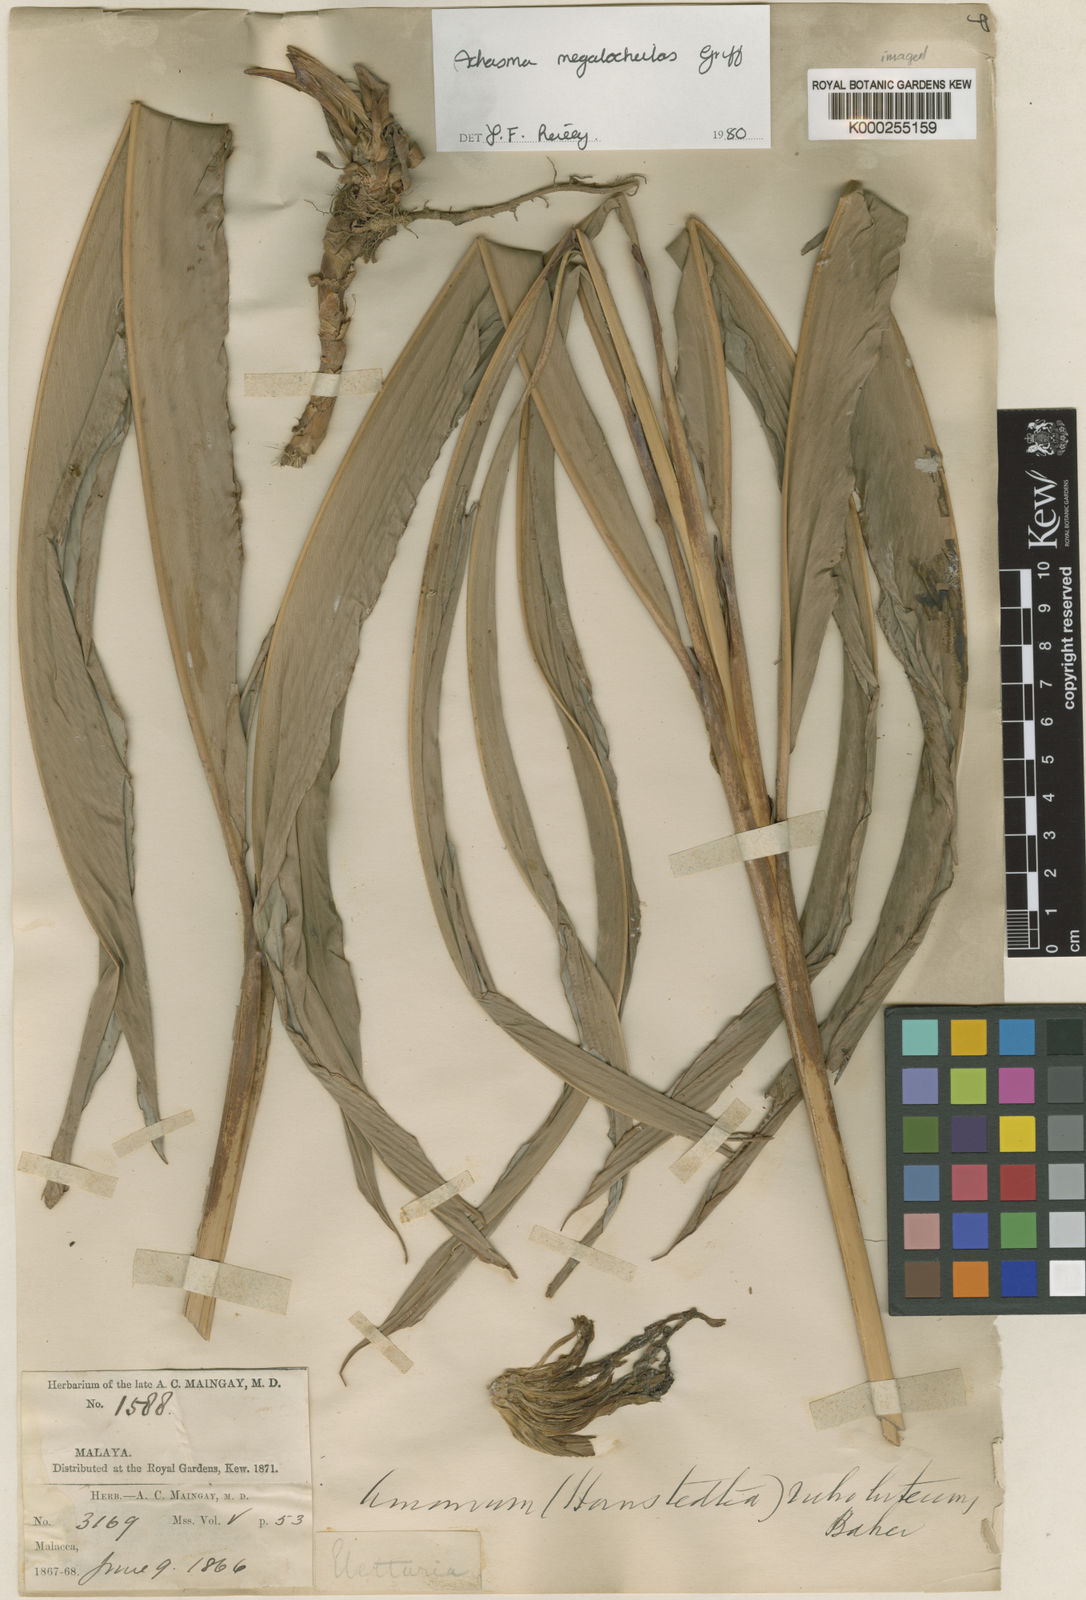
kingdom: Plantae
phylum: Tracheophyta
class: Liliopsida
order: Zingiberales
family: Zingiberaceae
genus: Etlingera
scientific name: Etlingera littoralis
